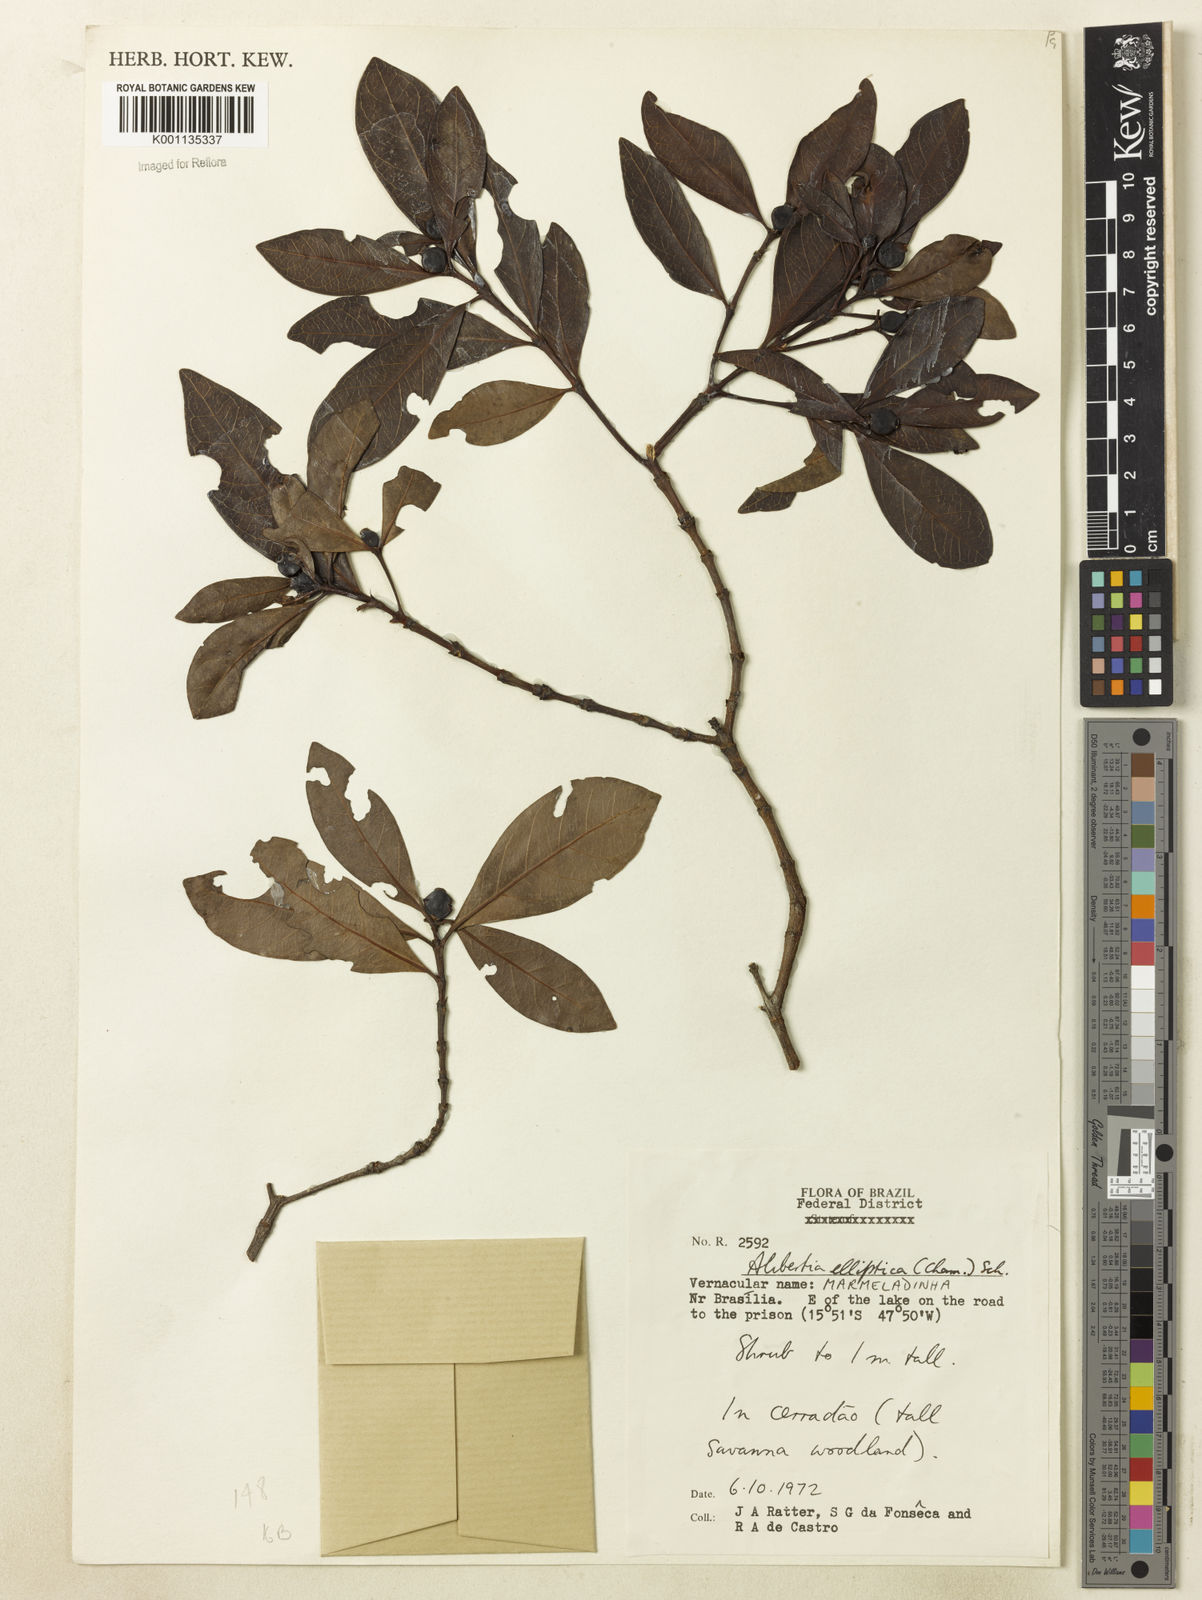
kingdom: Plantae
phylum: Tracheophyta
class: Magnoliopsida
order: Gentianales
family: Rubiaceae
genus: Cordiera
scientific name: Cordiera elliptica
